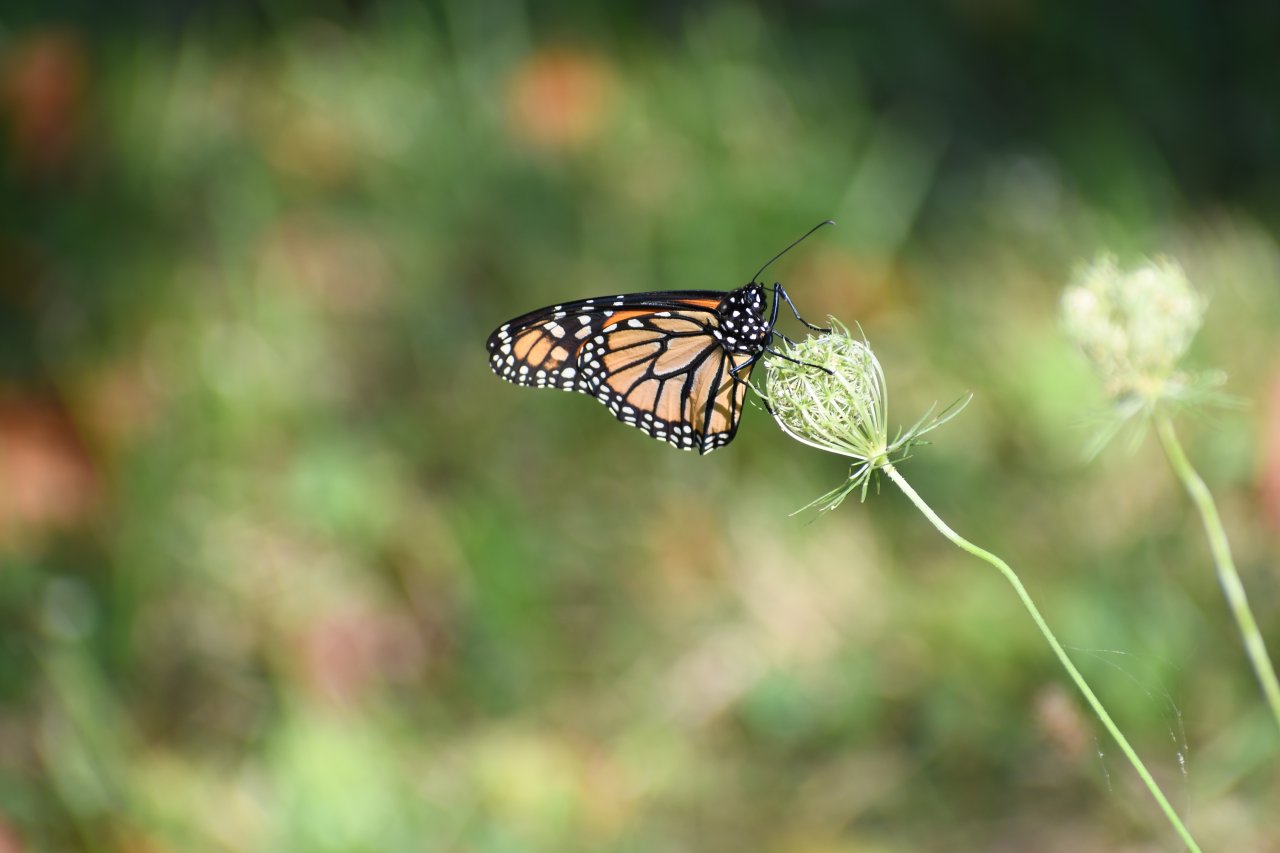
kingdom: Animalia
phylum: Arthropoda
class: Insecta
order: Lepidoptera
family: Nymphalidae
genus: Danaus
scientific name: Danaus plexippus
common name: Monarch
